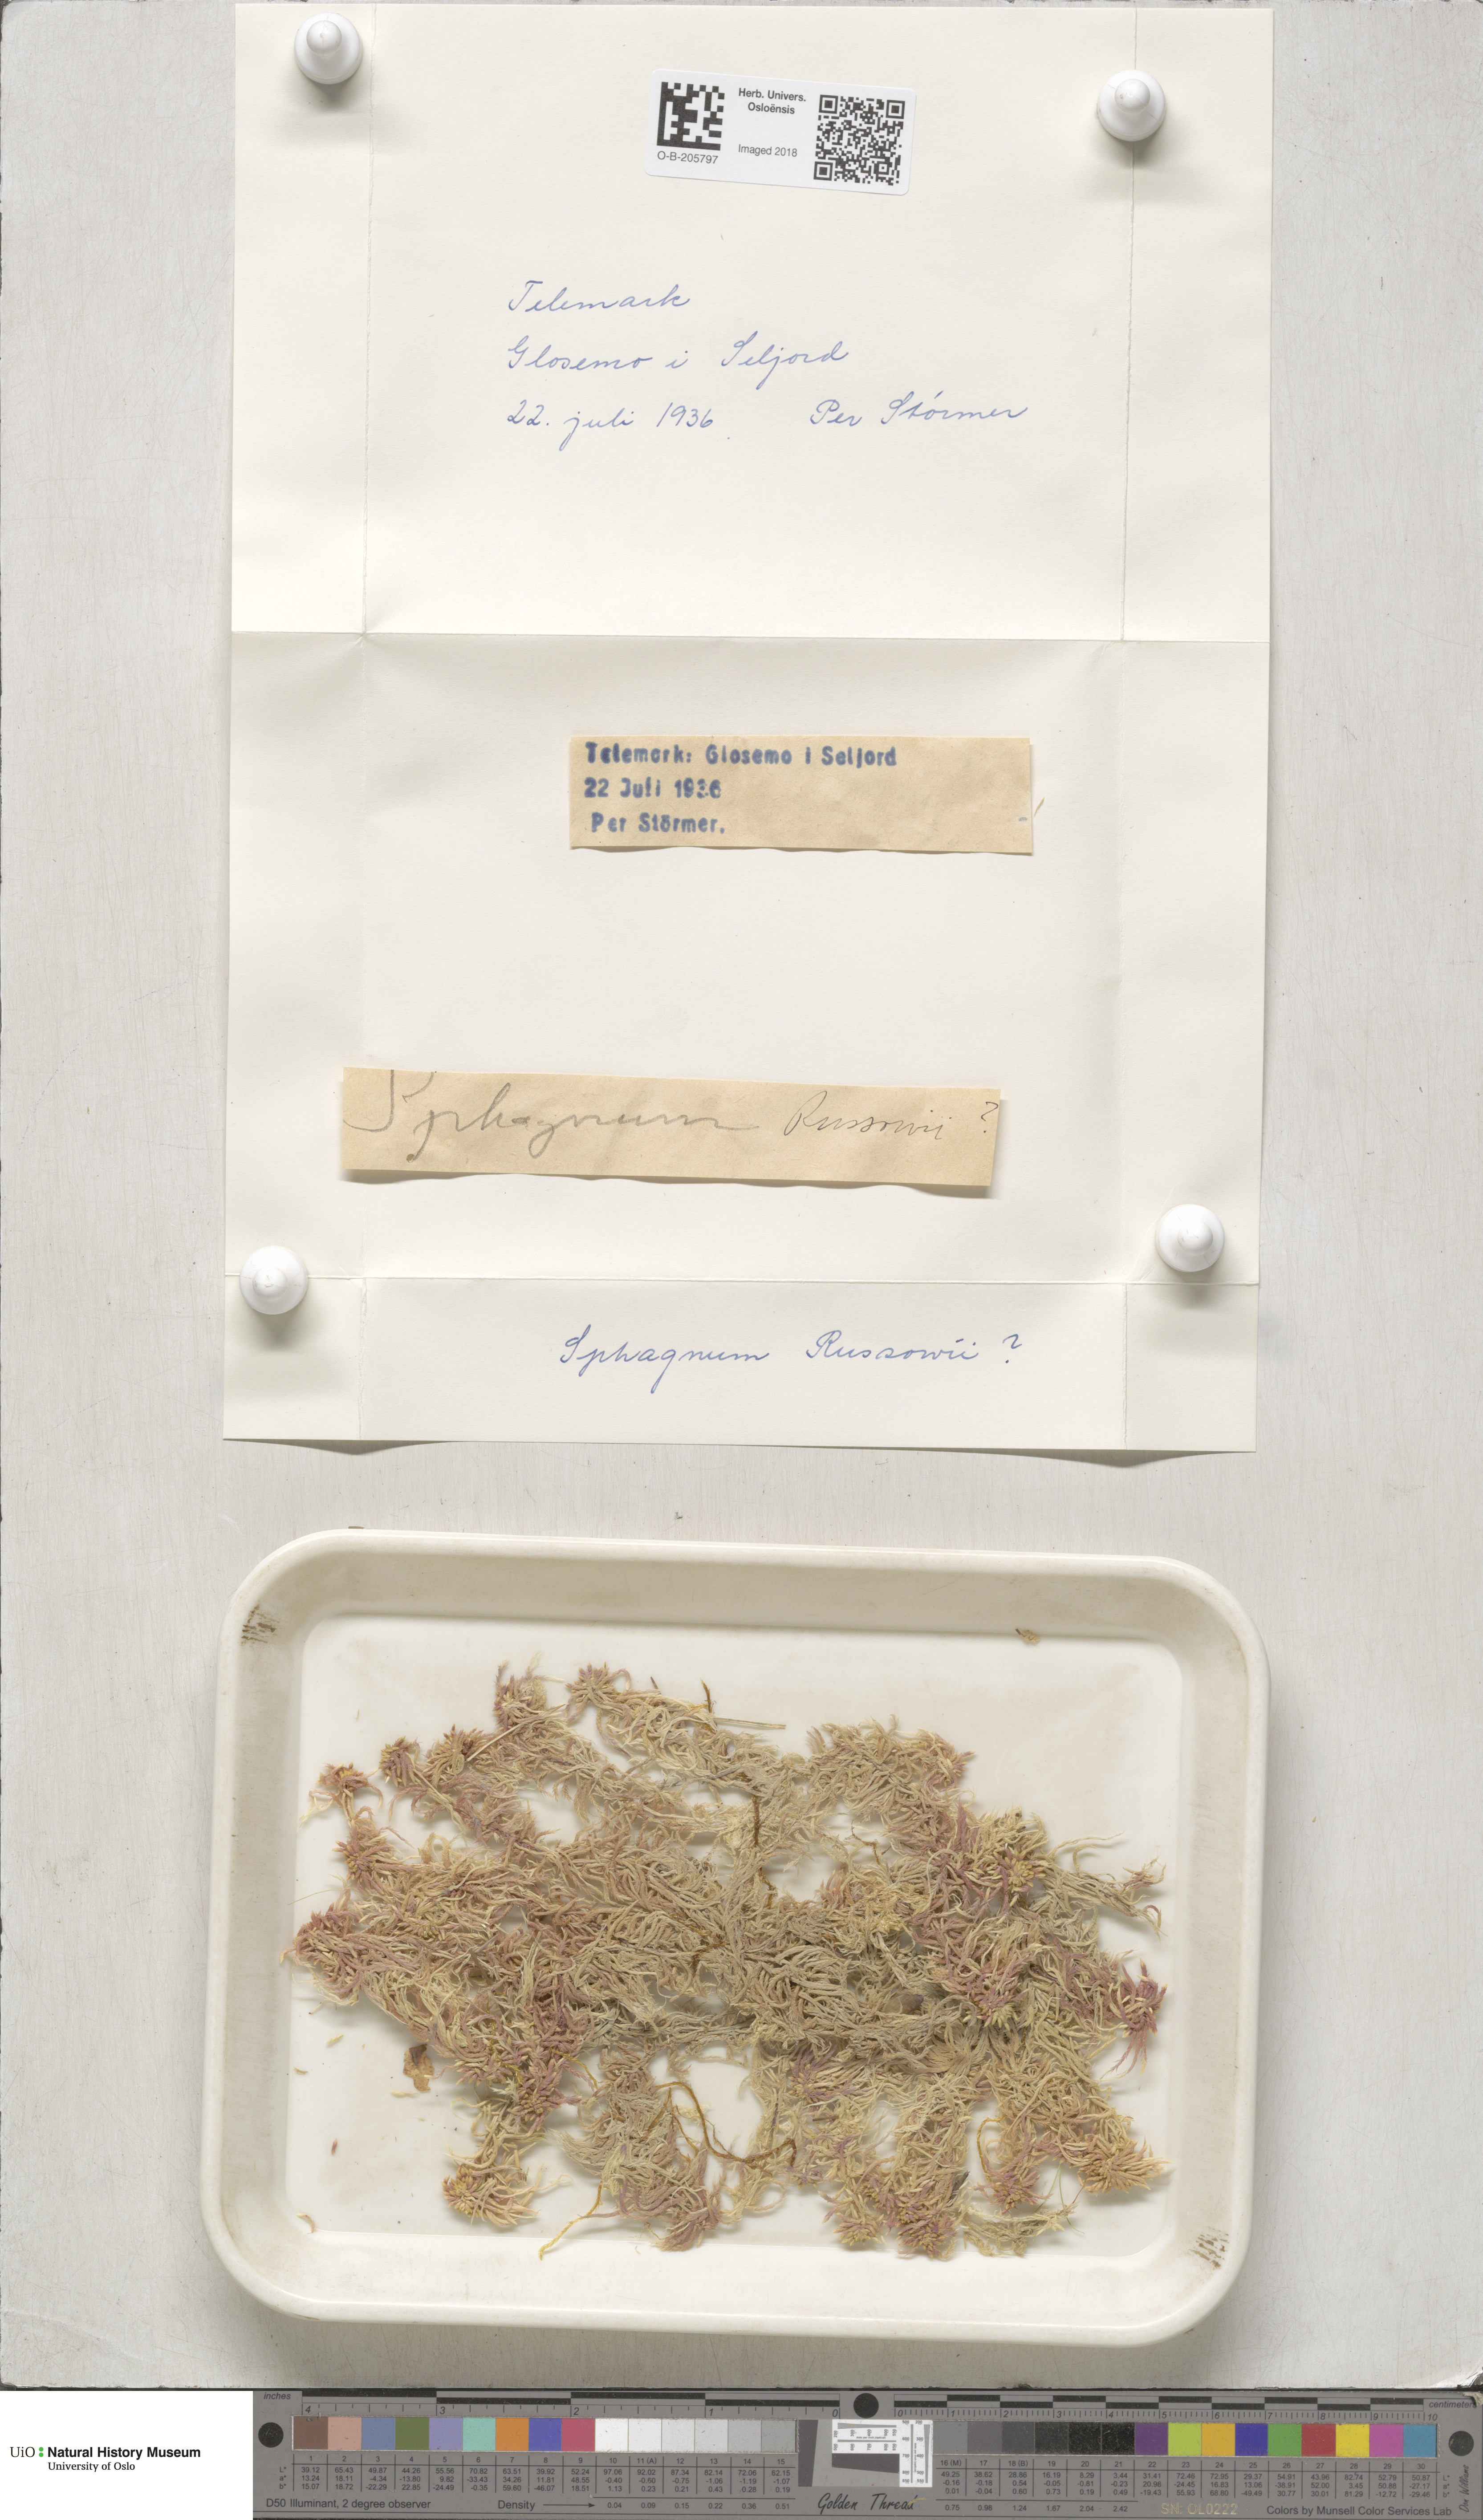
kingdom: Plantae
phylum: Bryophyta
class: Sphagnopsida
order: Sphagnales
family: Sphagnaceae
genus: Sphagnum
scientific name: Sphagnum russowii
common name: Russow's peat moss
